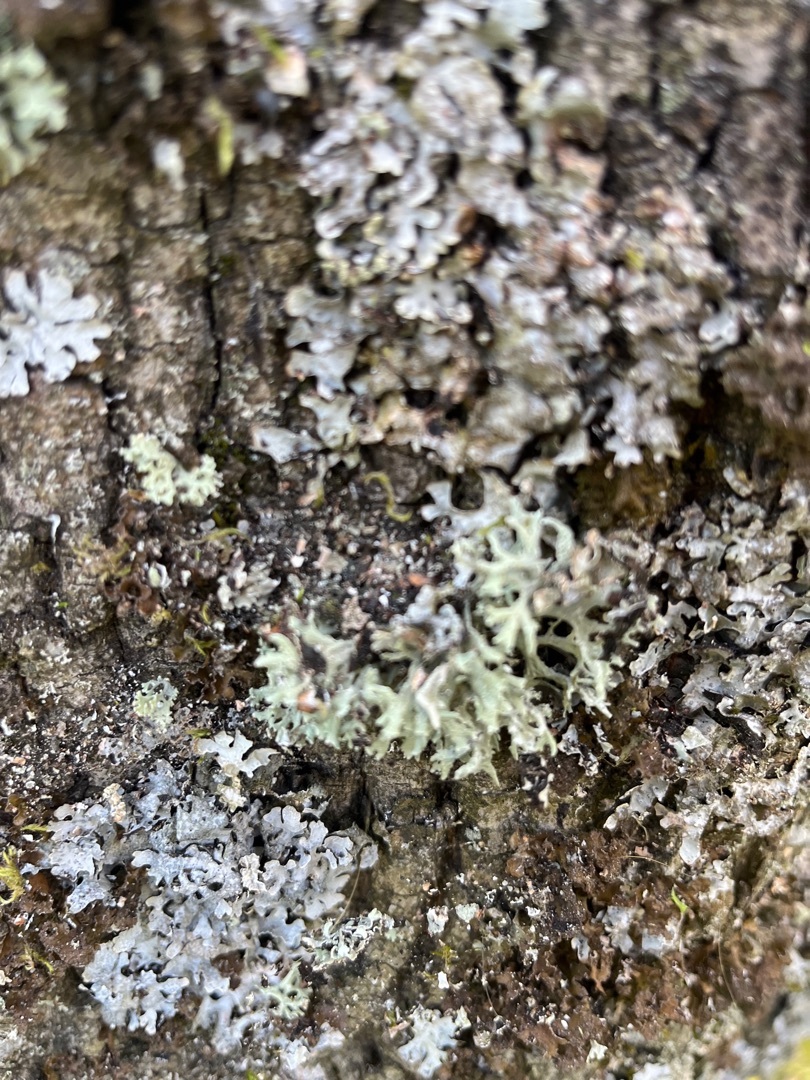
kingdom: Fungi
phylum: Ascomycota
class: Lecanoromycetes
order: Lecanorales
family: Parmeliaceae
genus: Evernia
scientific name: Evernia prunastri
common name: Almindelig slåenlav
